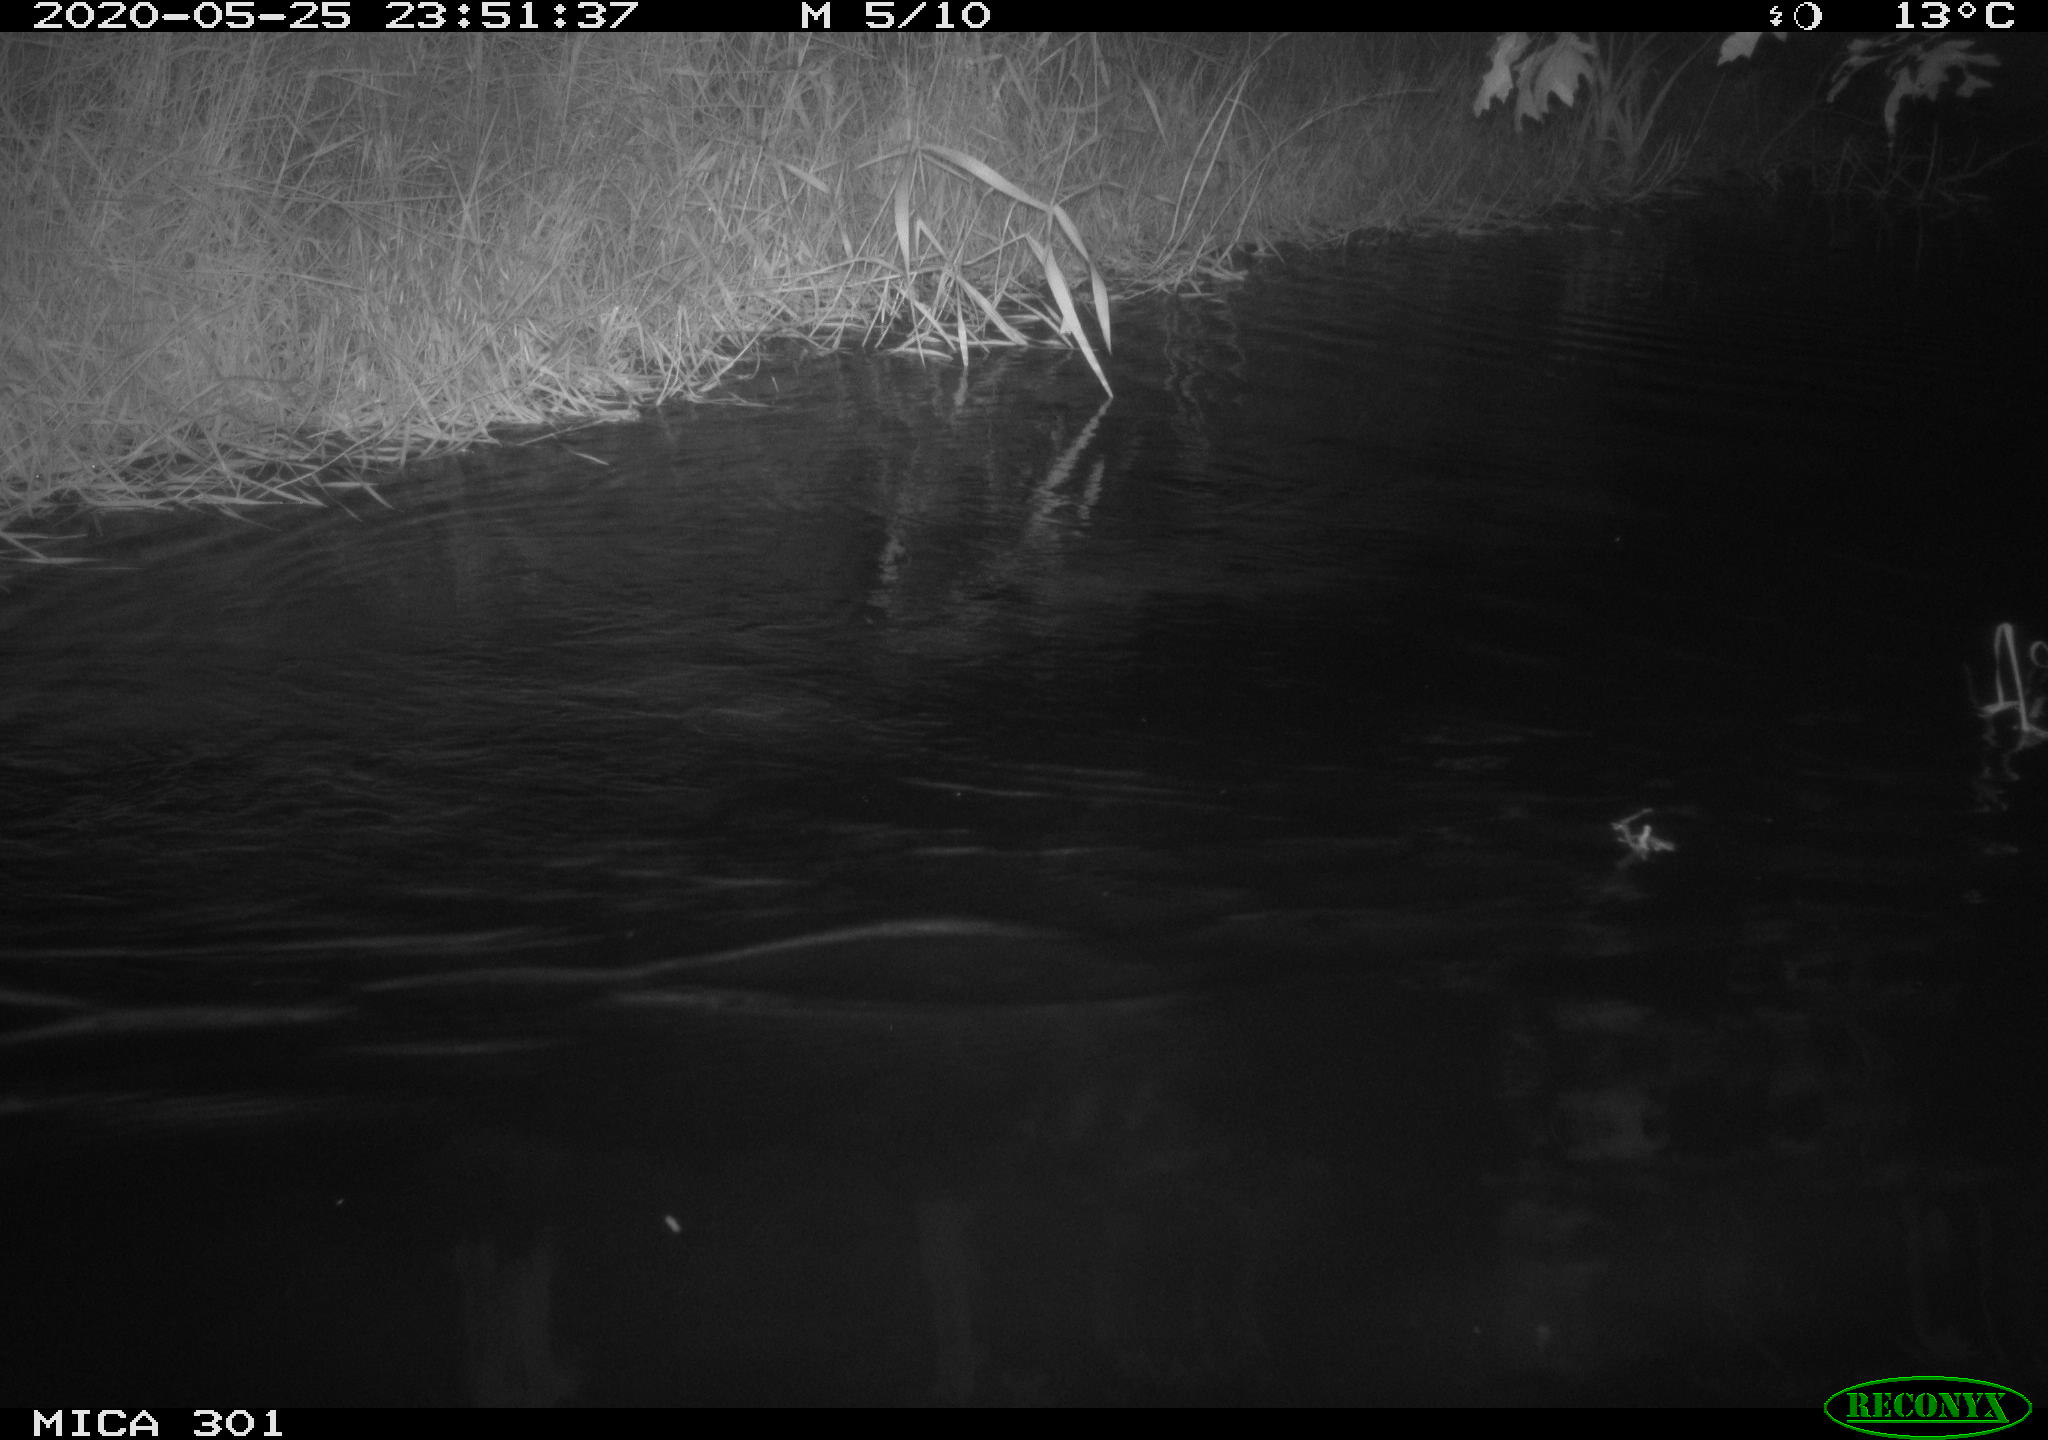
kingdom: Animalia
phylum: Chordata
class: Mammalia
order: Rodentia
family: Castoridae
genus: Castor
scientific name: Castor fiber
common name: Eurasian beaver
